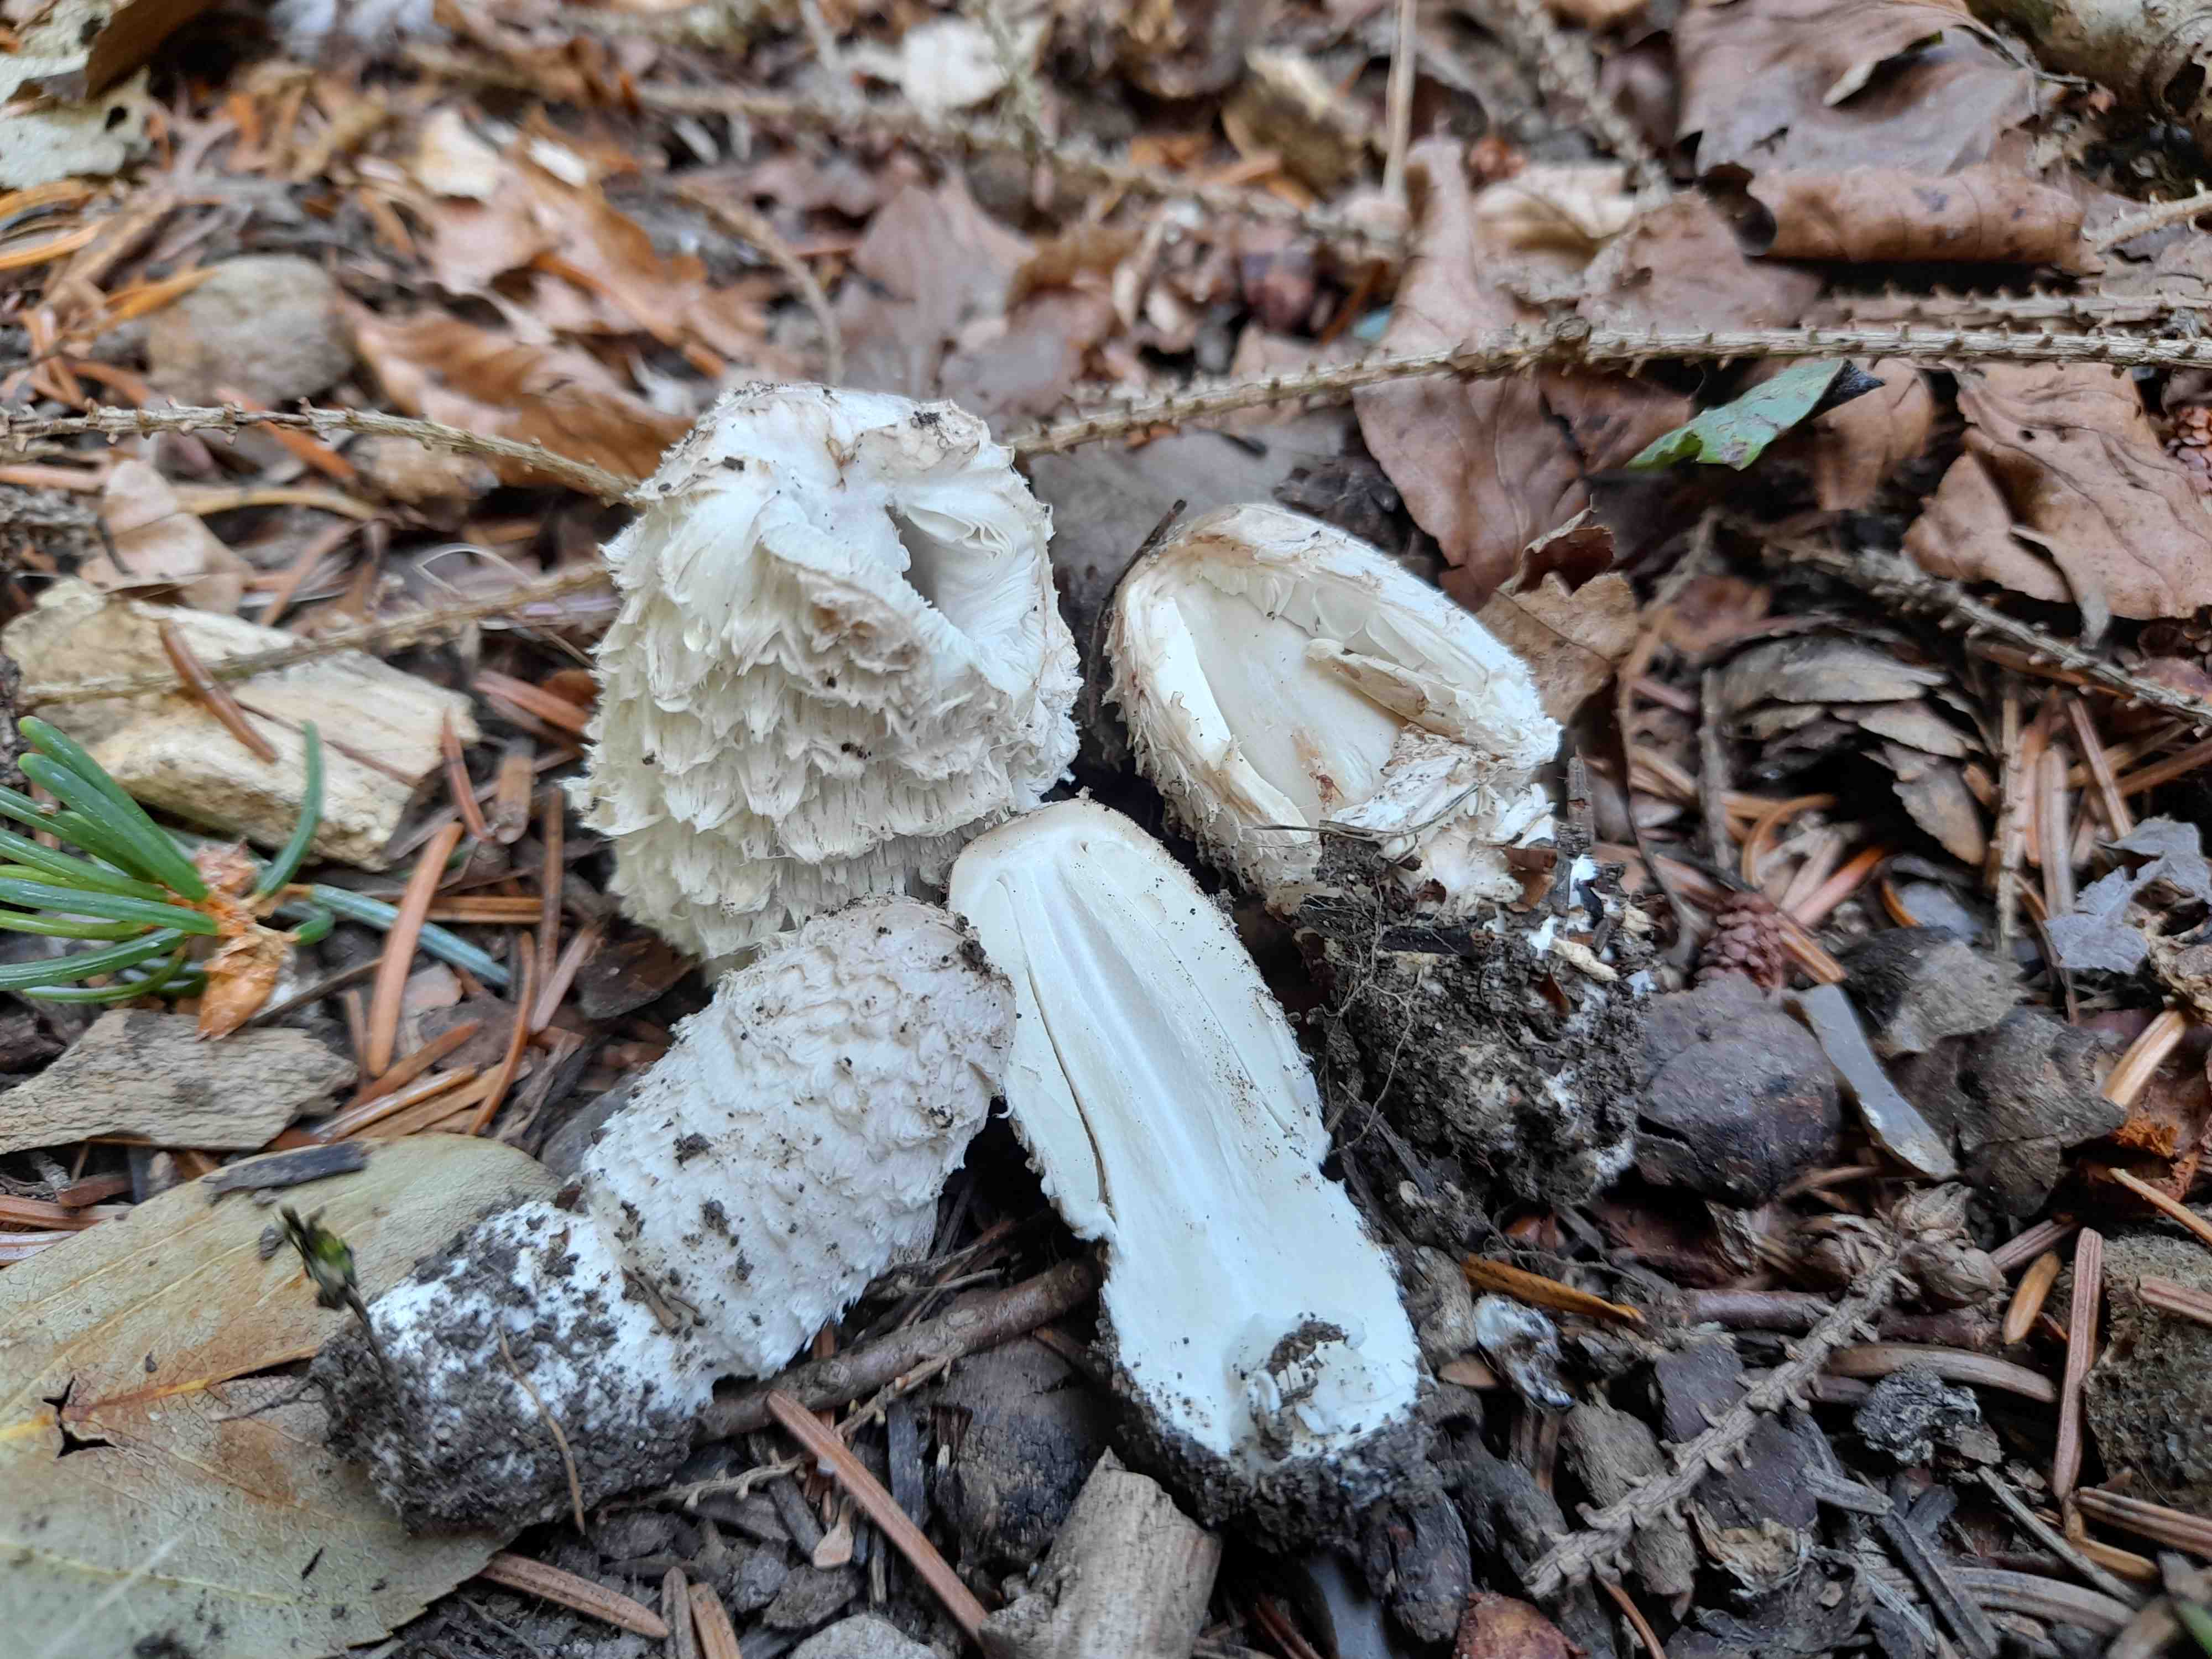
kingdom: Fungi
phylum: Basidiomycota
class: Agaricomycetes
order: Agaricales
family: Agaricaceae
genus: Coprinus
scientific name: Coprinus comatus
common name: stor parykhat
